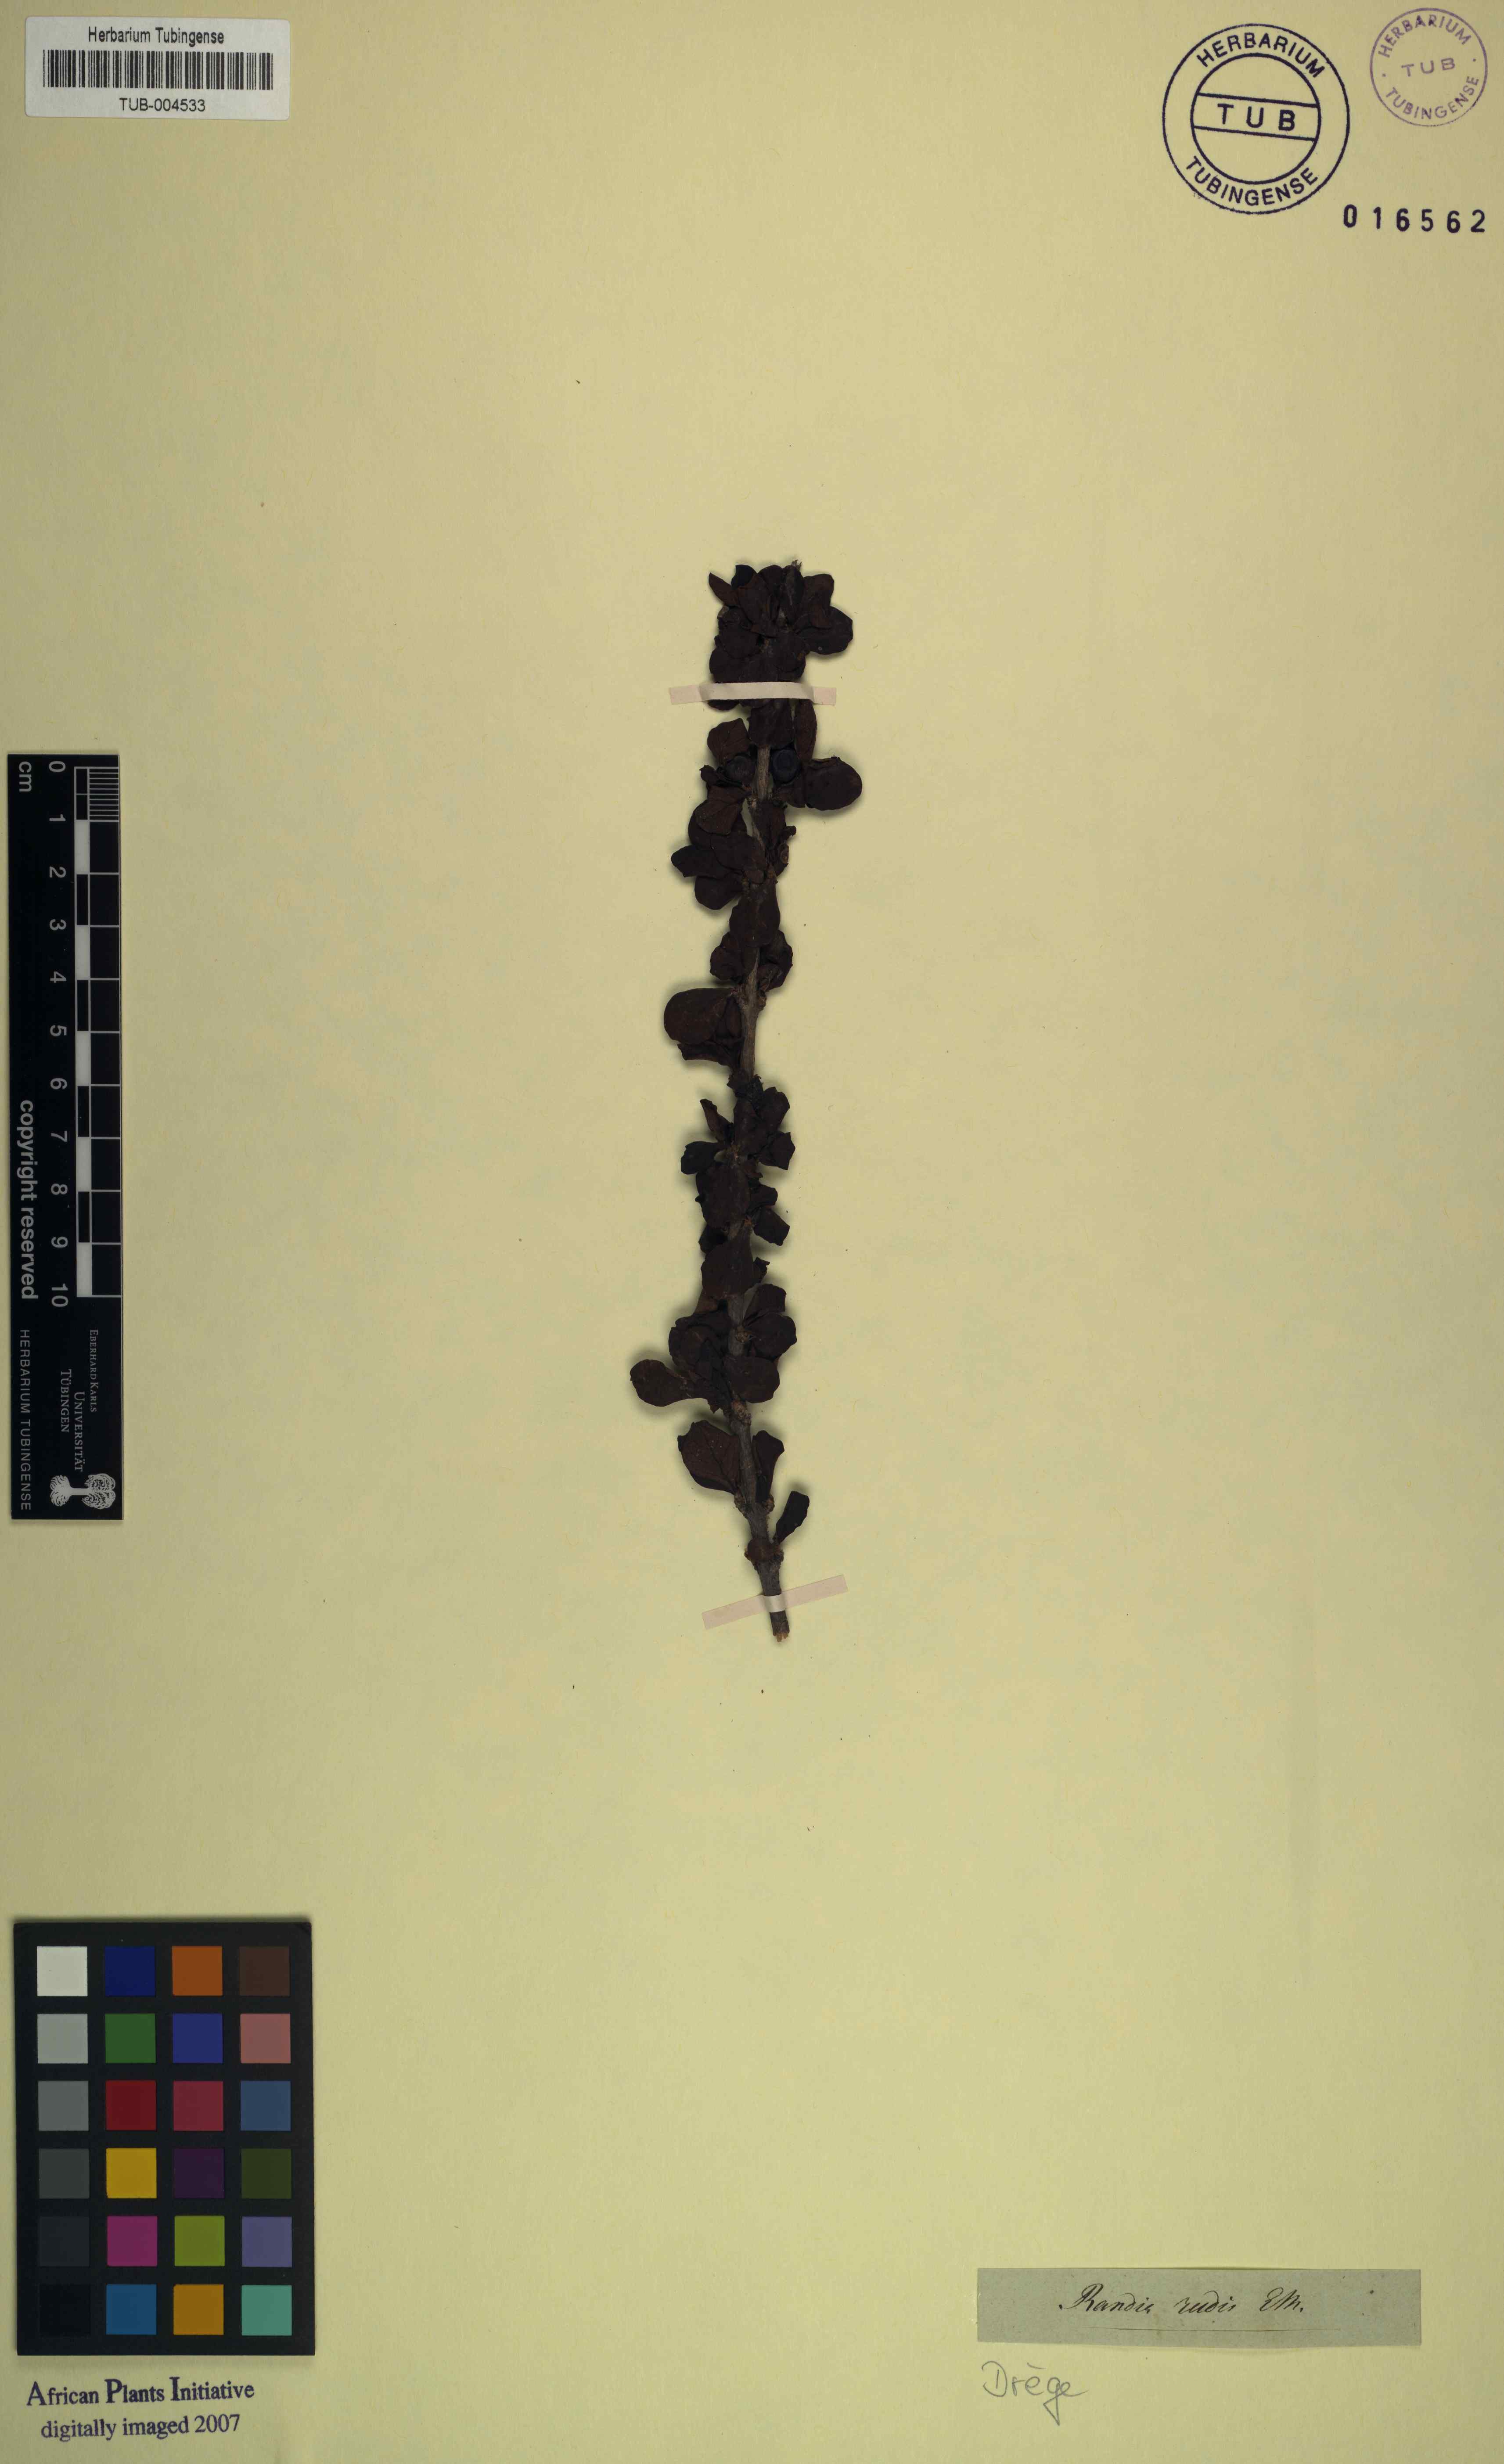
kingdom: Plantae
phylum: Tracheophyta
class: Magnoliopsida
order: Gentianales
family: Rubiaceae
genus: Coddia
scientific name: Coddia rudis
